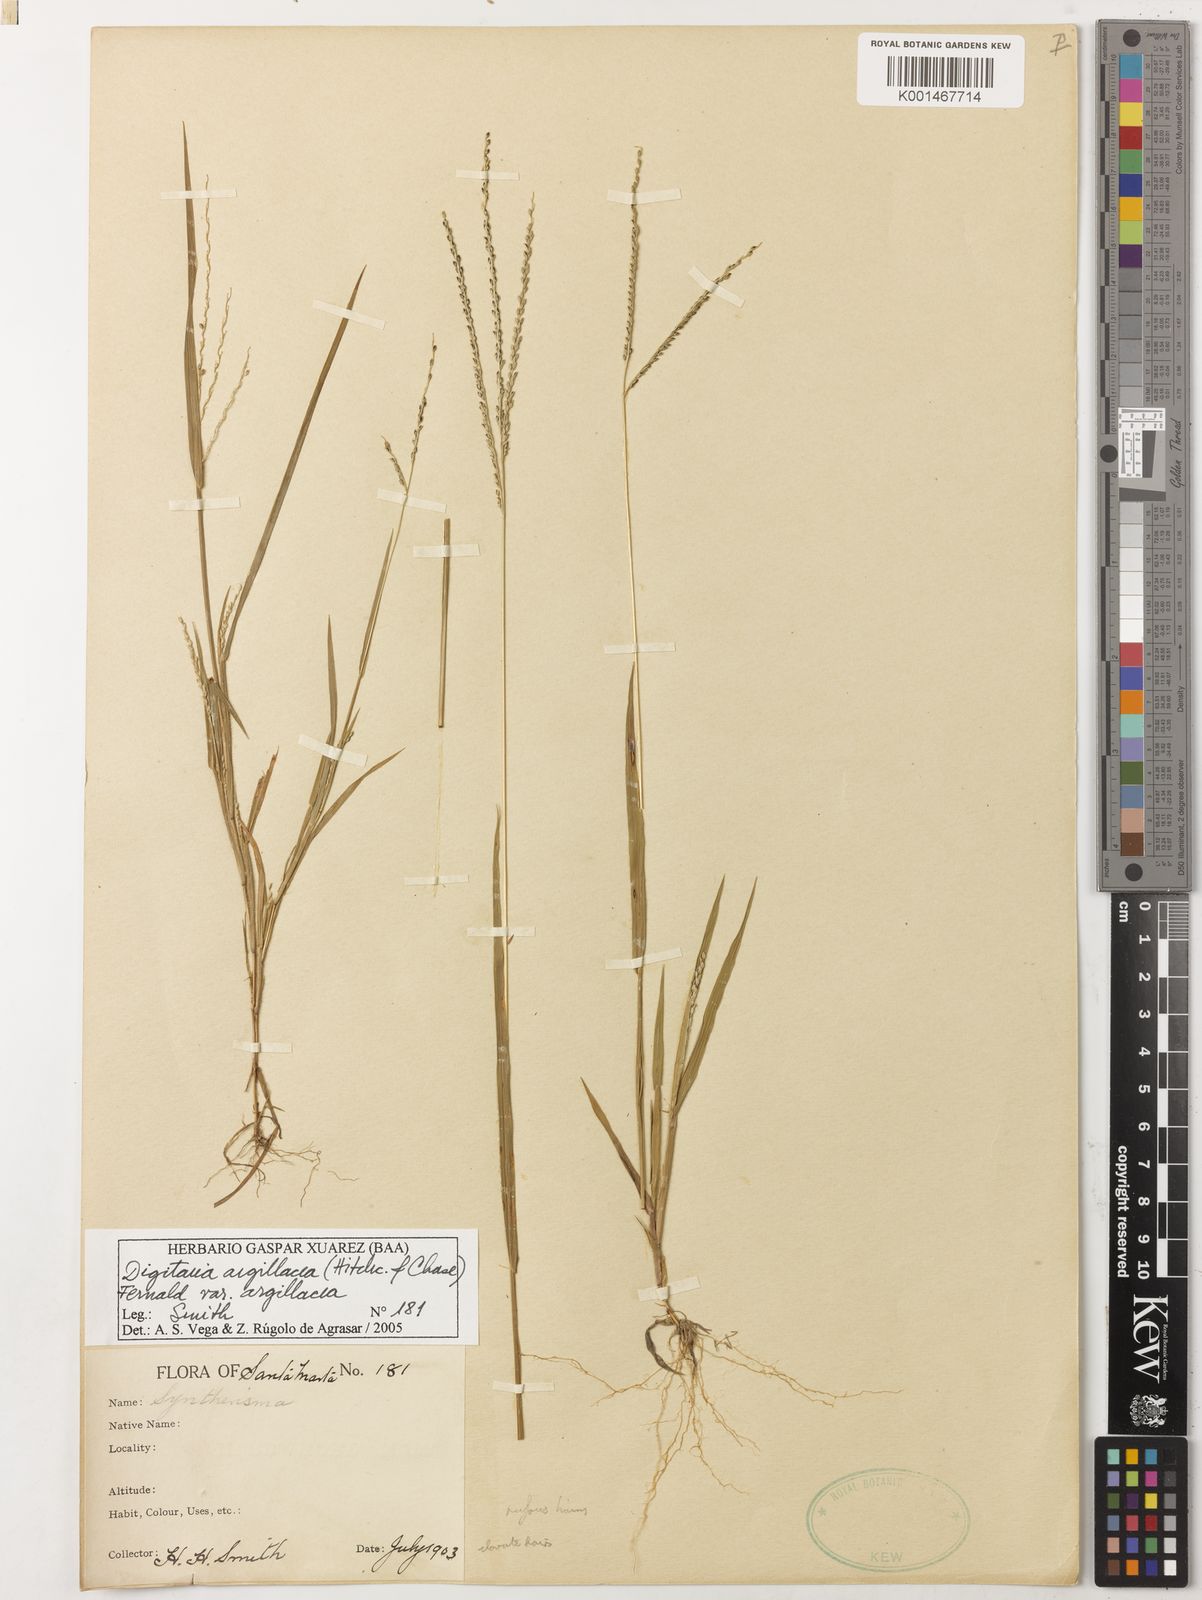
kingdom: Plantae
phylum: Tracheophyta
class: Liliopsida
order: Poales
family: Poaceae
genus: Digitaria
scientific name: Digitaria argillacea
